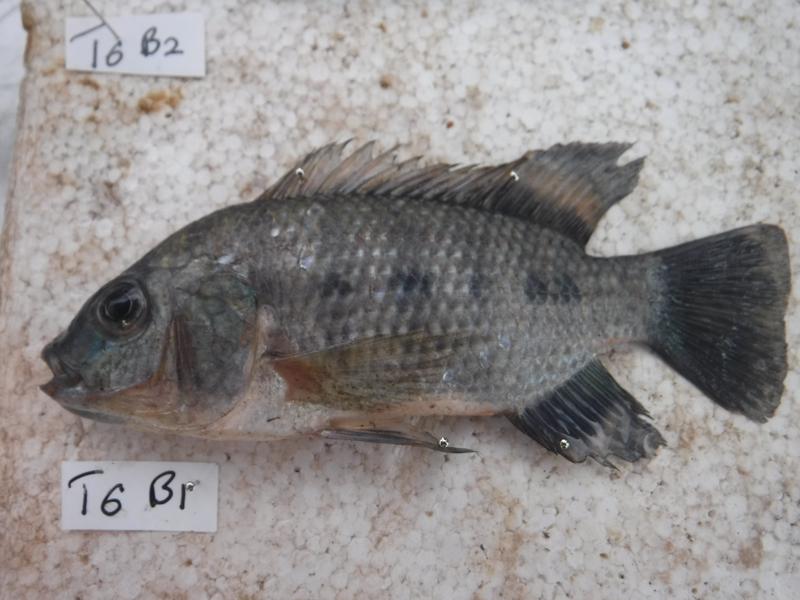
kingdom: Animalia
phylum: Chordata
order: Perciformes
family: Cichlidae
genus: Oreochromis
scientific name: Oreochromis urolepis
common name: Wami tilapia
